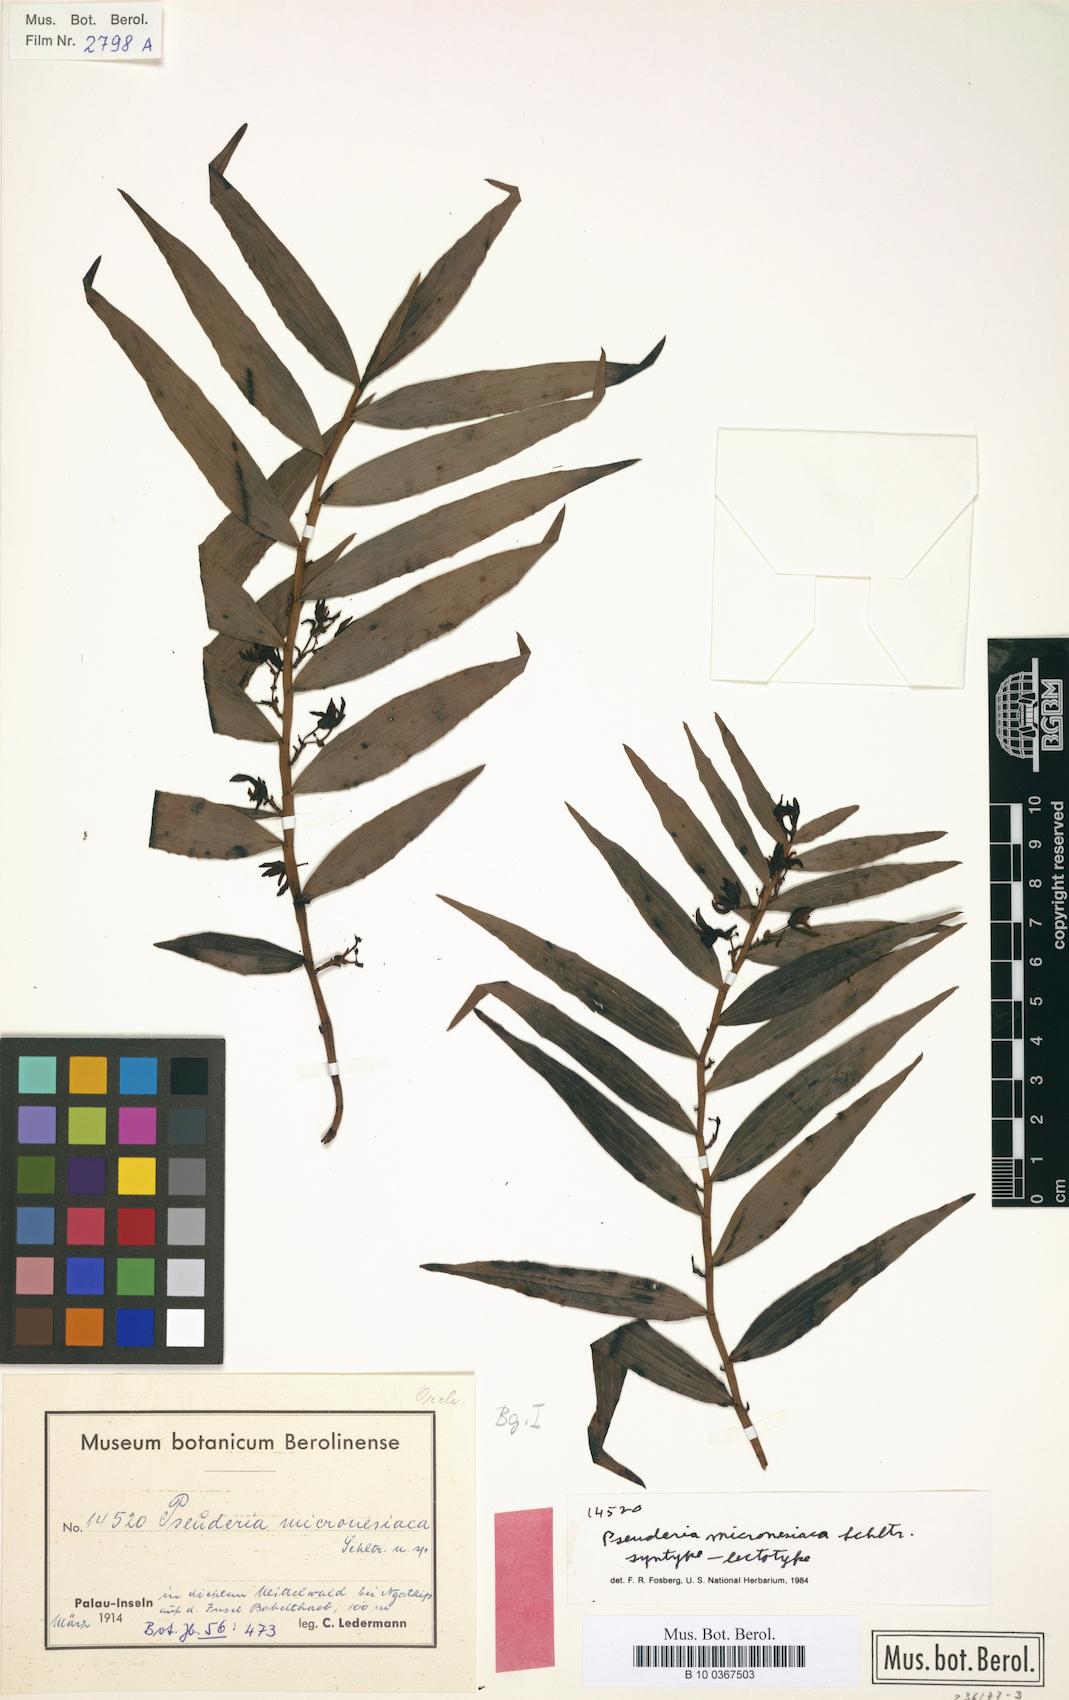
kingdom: Plantae
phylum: Tracheophyta
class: Liliopsida
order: Asparagales
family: Orchidaceae
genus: Pseuderia
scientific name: Pseuderia micronesiaca
